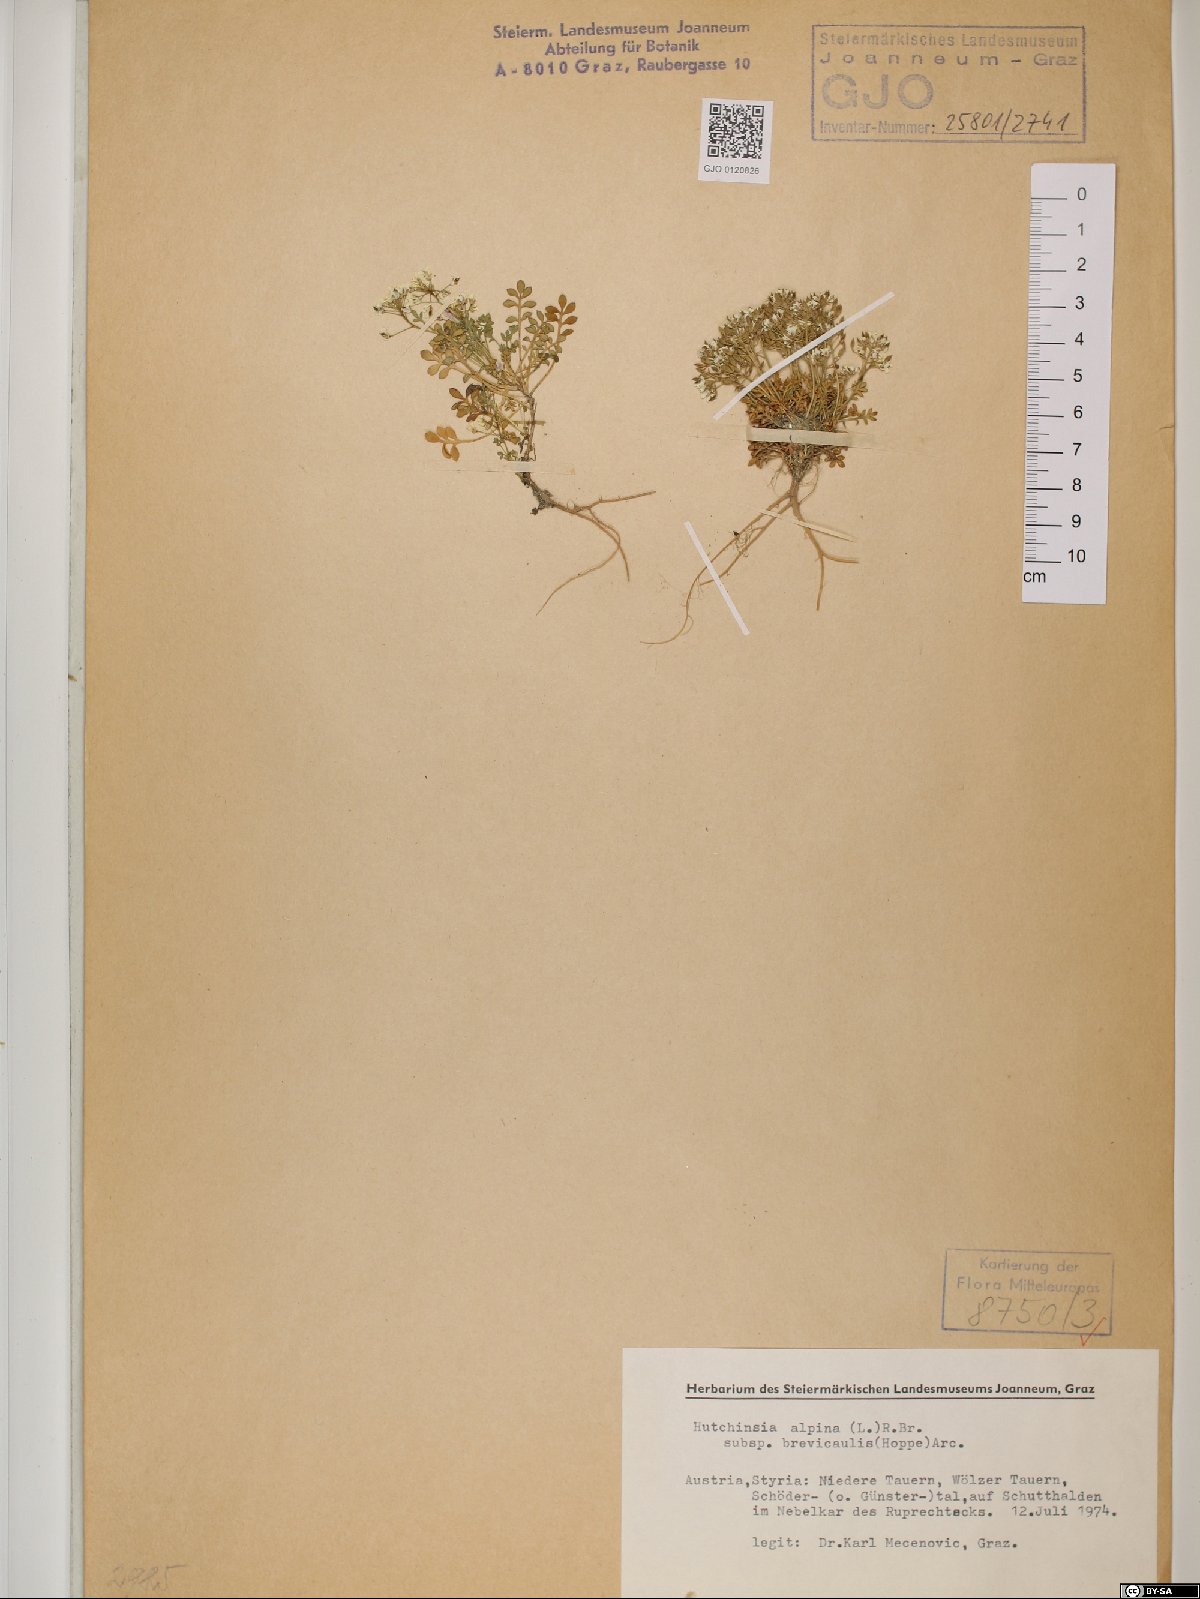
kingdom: Plantae
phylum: Tracheophyta
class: Magnoliopsida
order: Brassicales
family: Brassicaceae
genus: Hornungia
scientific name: Hornungia alpina
